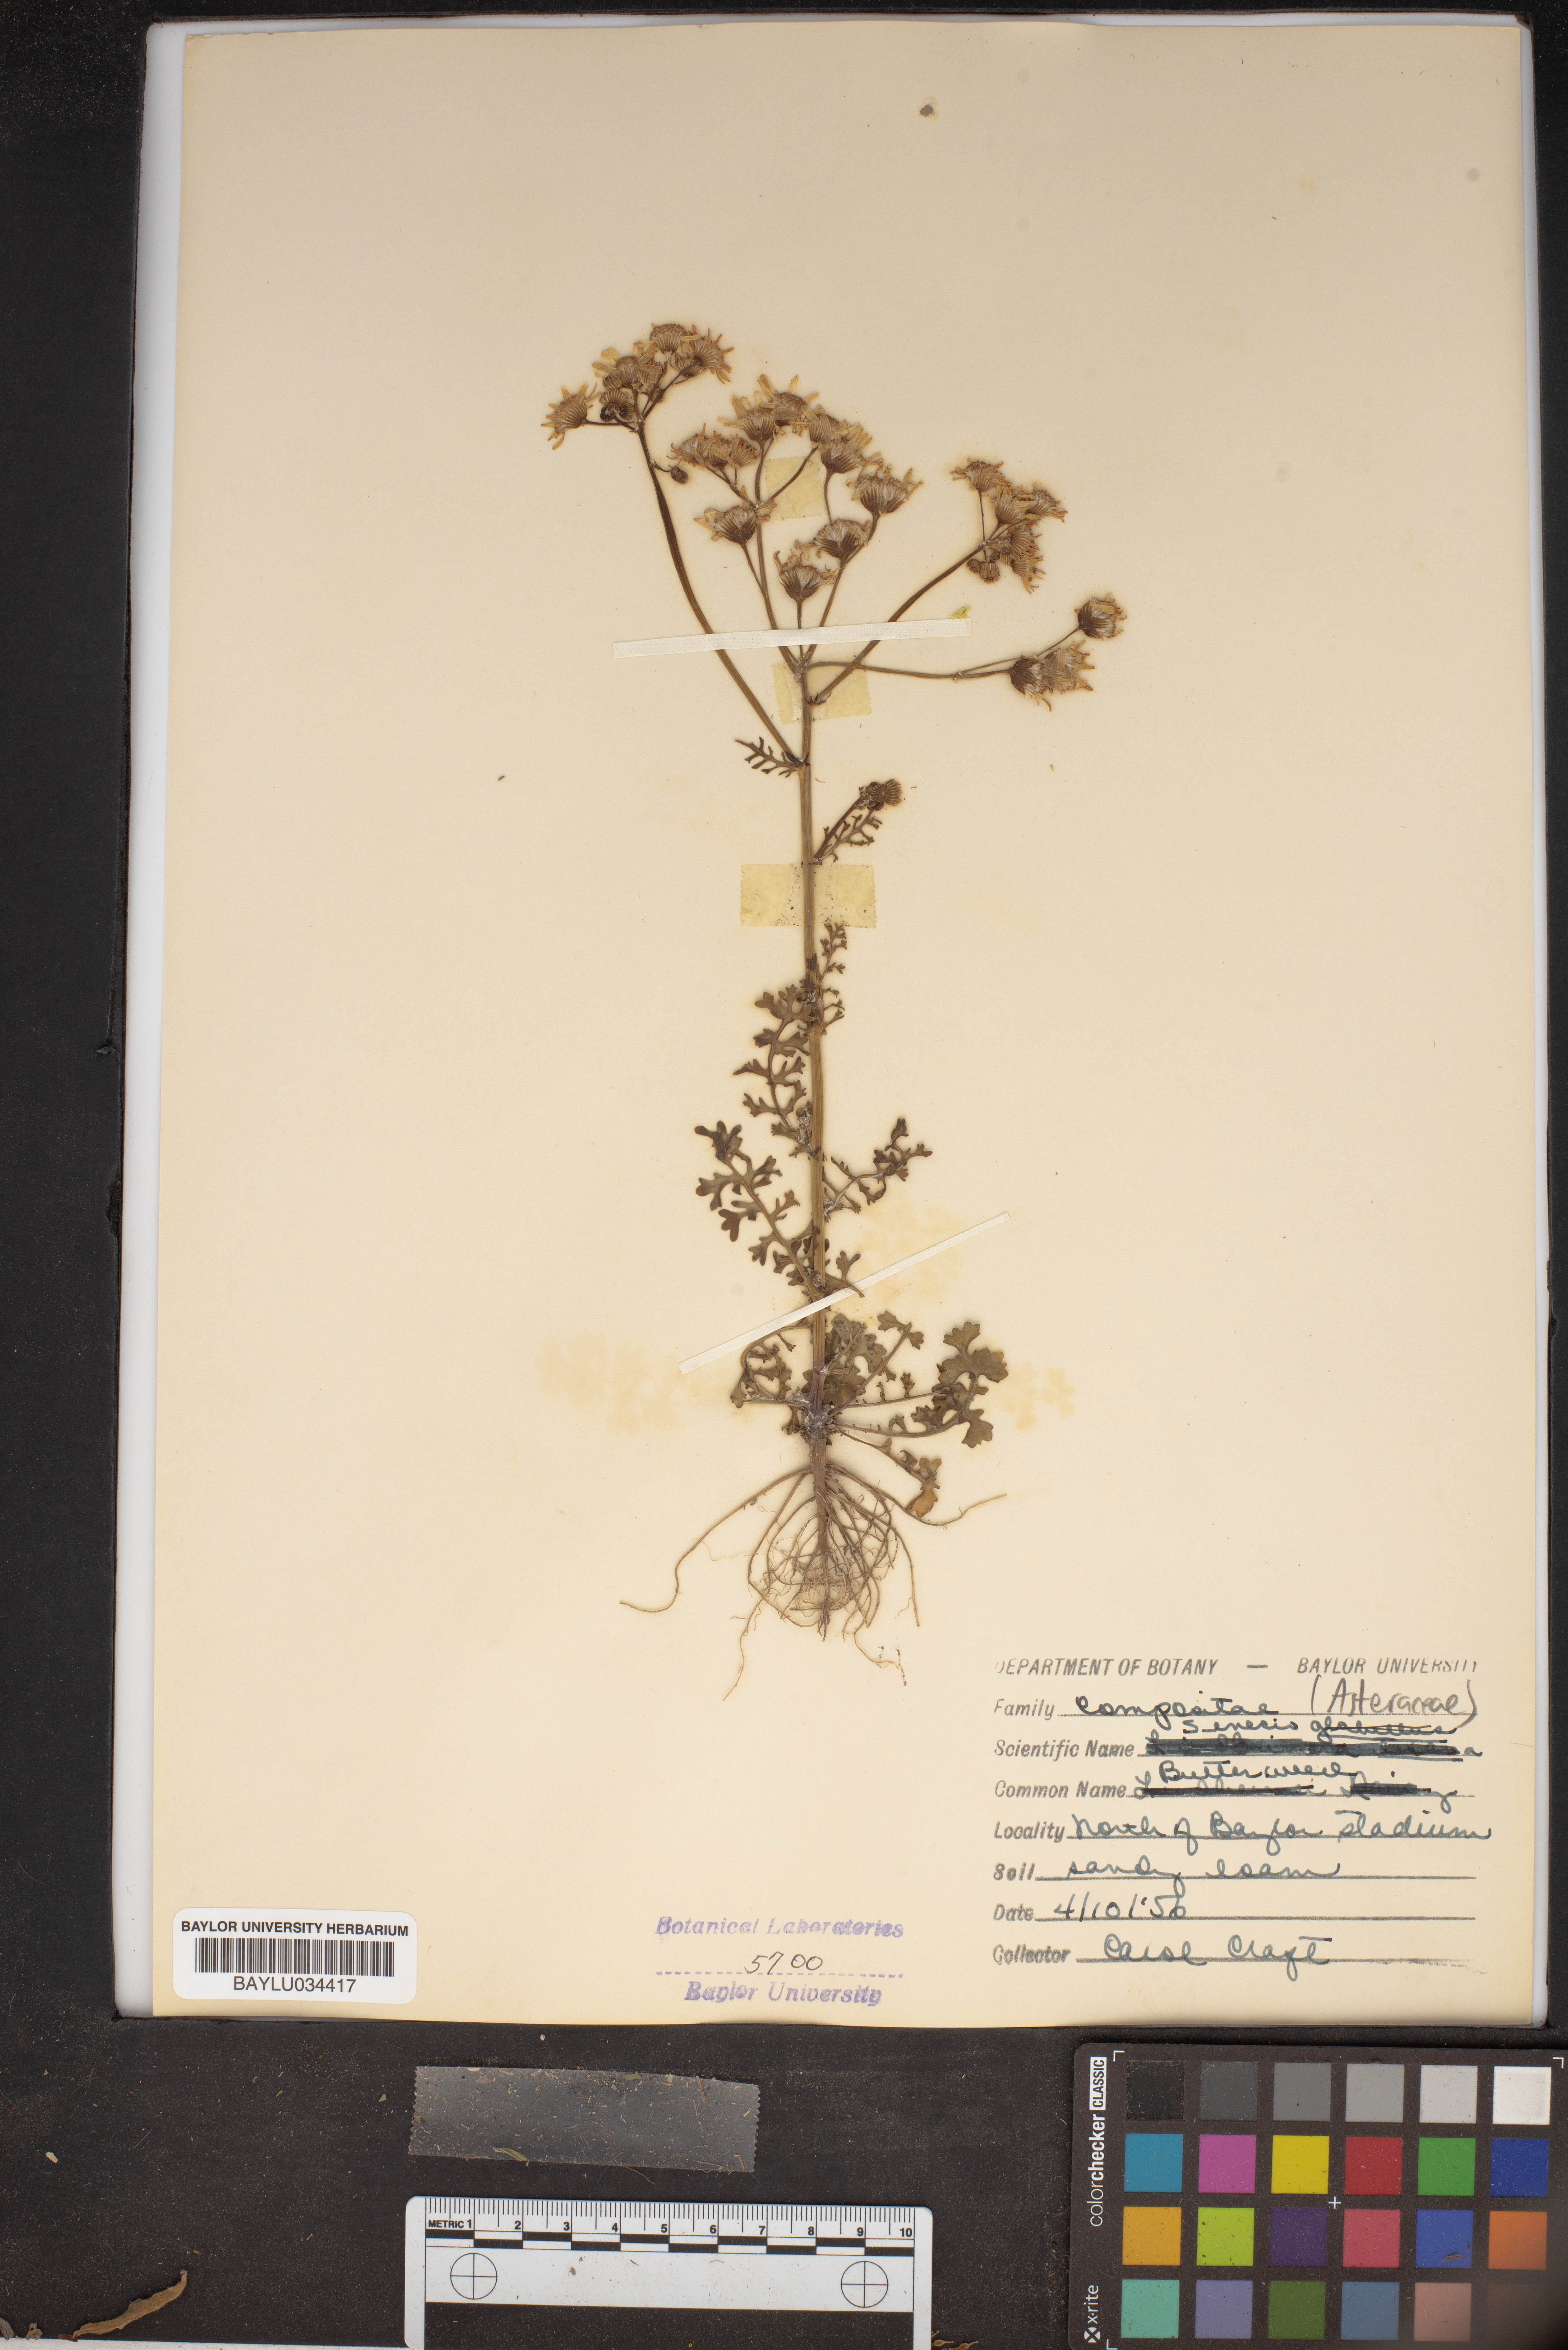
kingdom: Plantae
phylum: Tracheophyta
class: Magnoliopsida
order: Asterales
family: Asteraceae
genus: Tephroseris
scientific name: Tephroseris praticola
